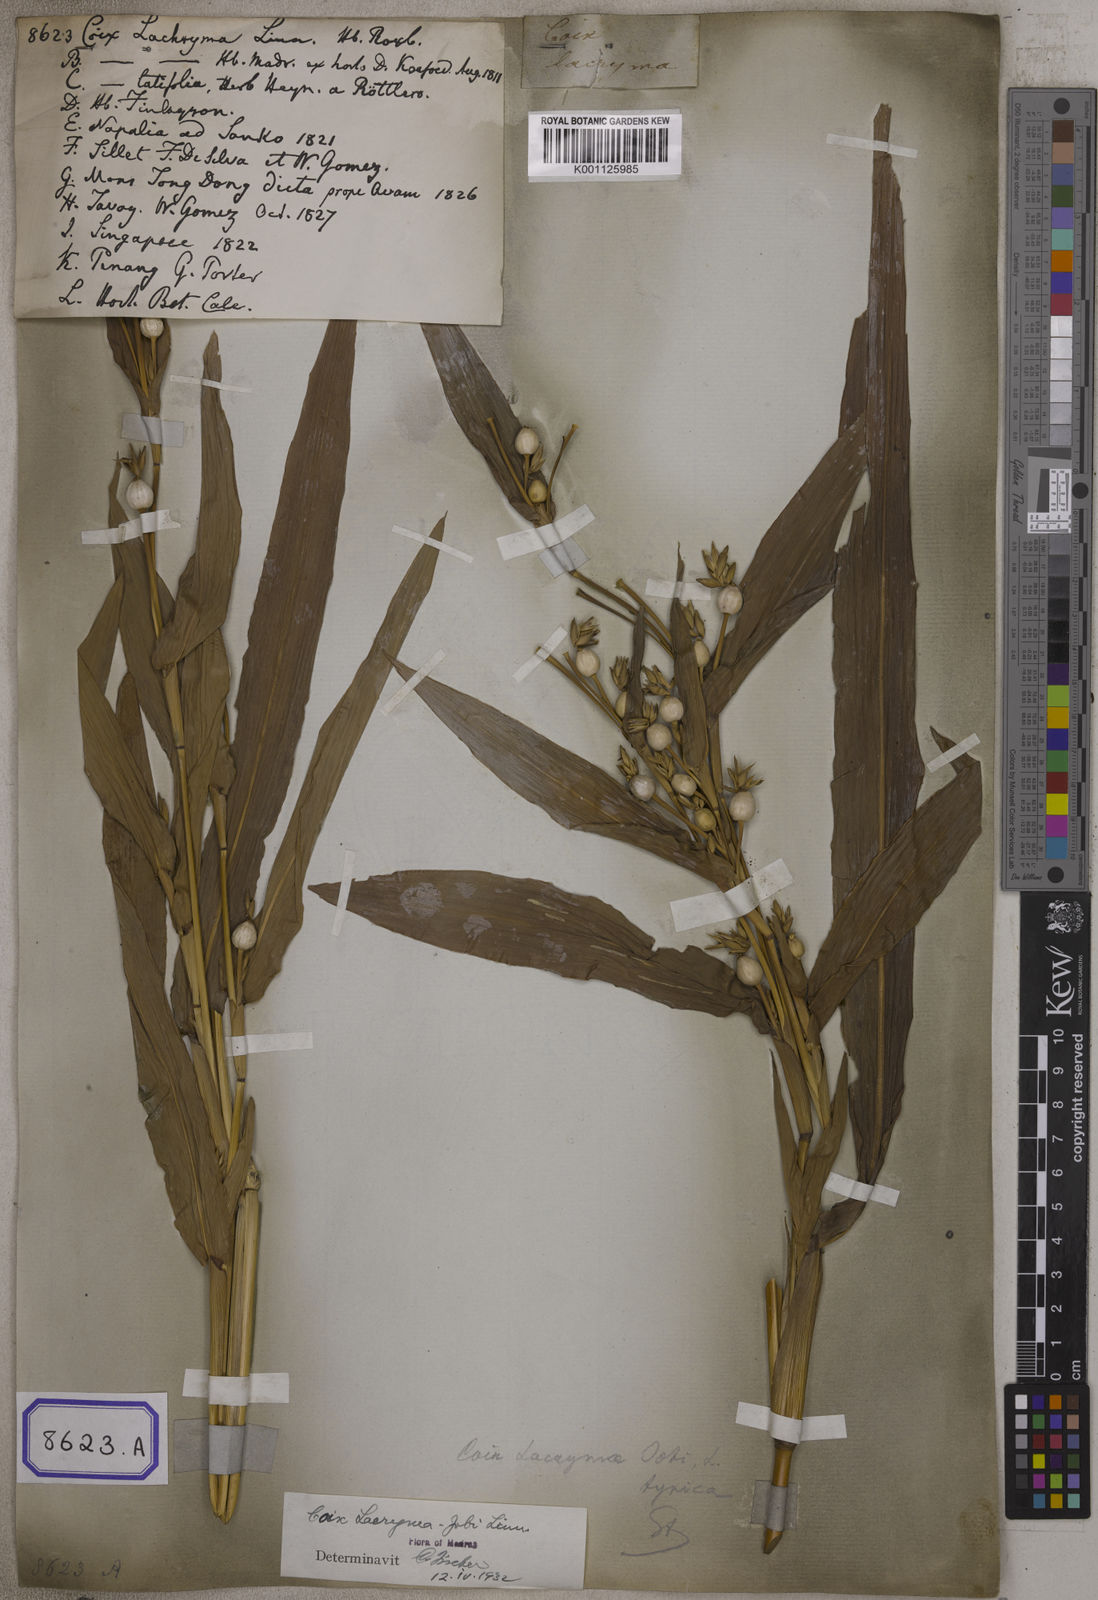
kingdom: Plantae
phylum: Tracheophyta
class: Liliopsida
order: Poales
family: Poaceae
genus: Coix
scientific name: Coix lacryma-jobi
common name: Job's tears
